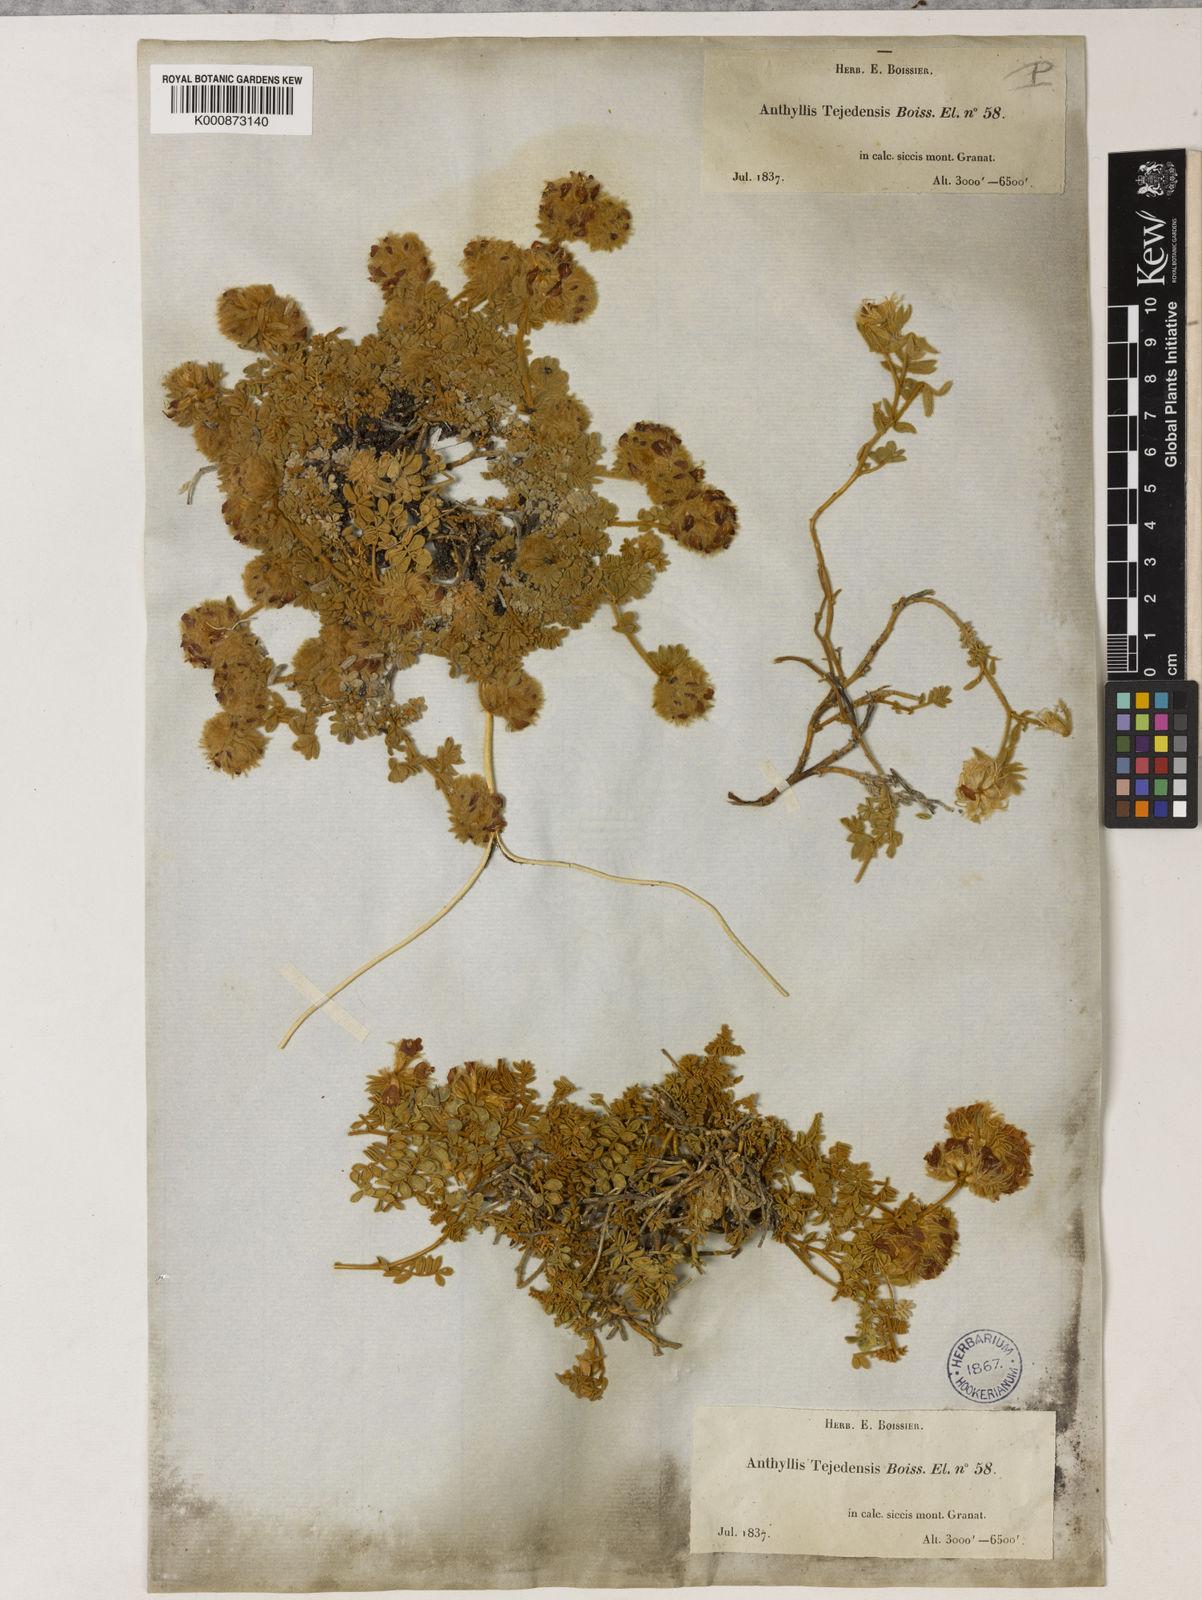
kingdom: Plantae
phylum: Tracheophyta
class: Magnoliopsida
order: Fabales
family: Fabaceae
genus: Anthyllis
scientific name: Anthyllis tejedensis
